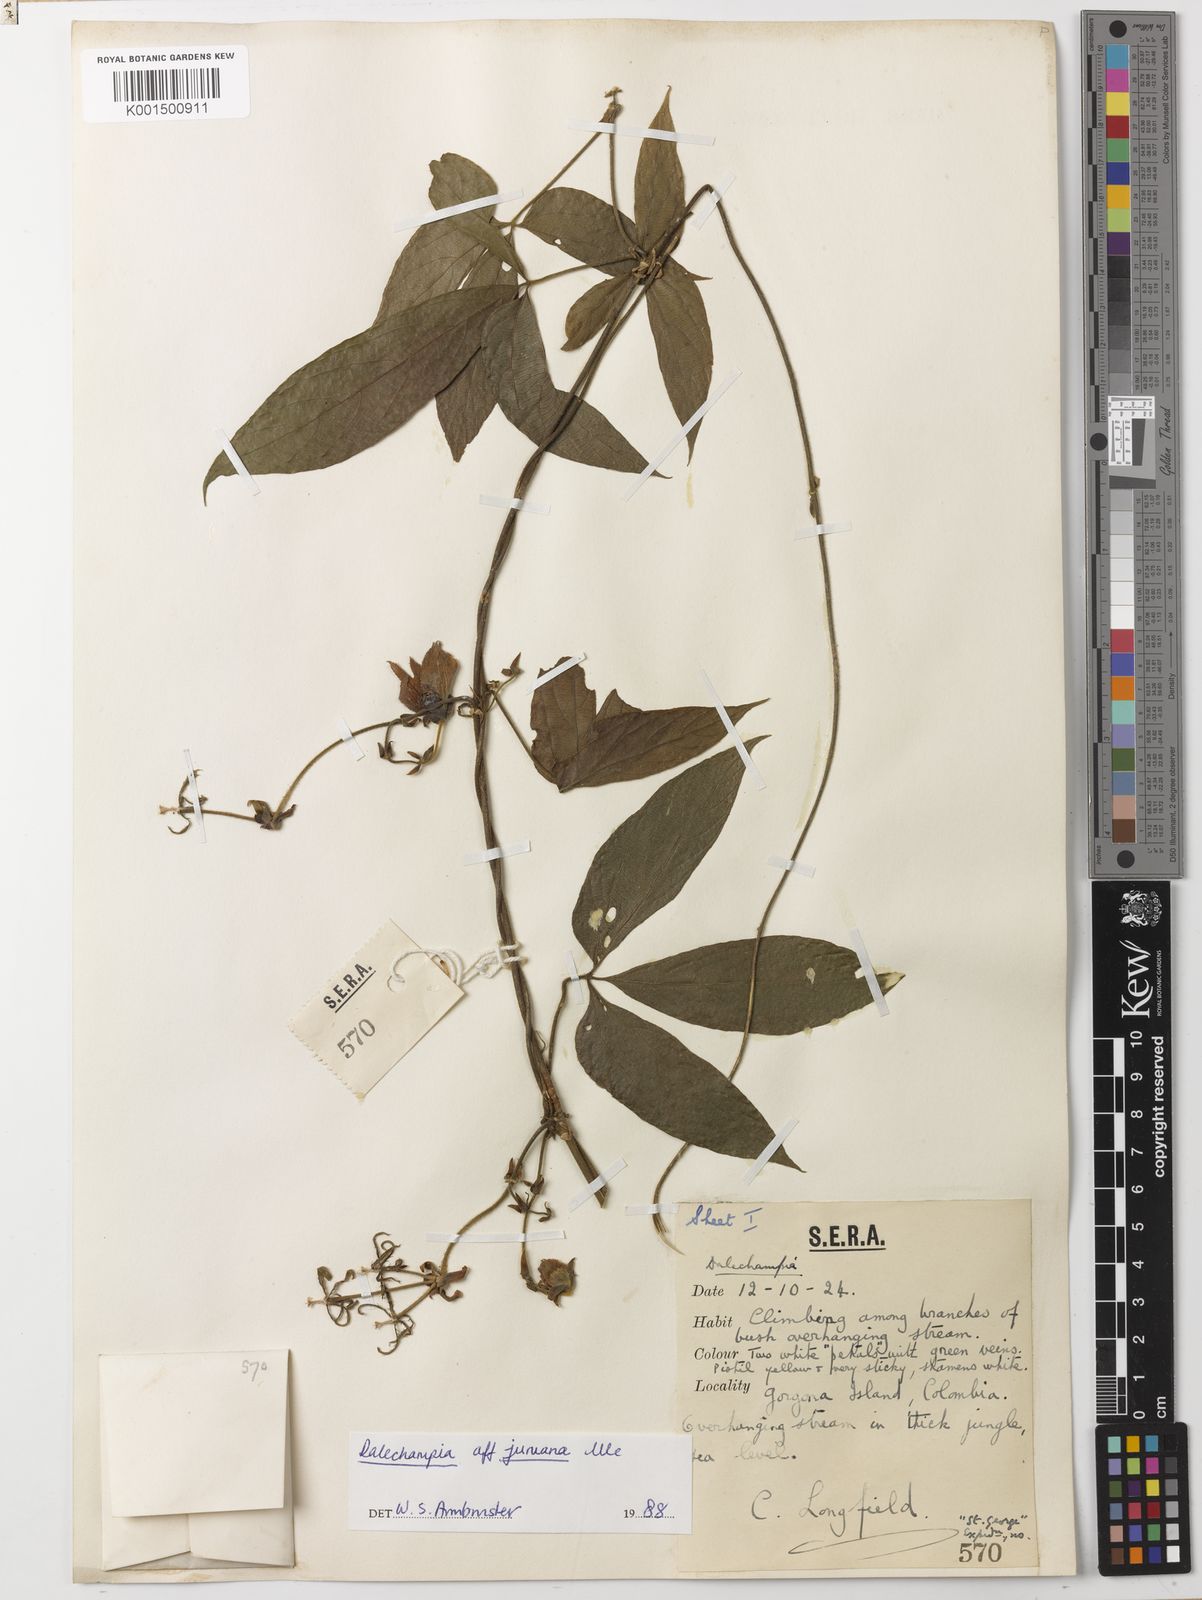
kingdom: Plantae
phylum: Tracheophyta
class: Magnoliopsida
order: Malpighiales
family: Euphorbiaceae
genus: Dalechampia
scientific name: Dalechampia juruana
